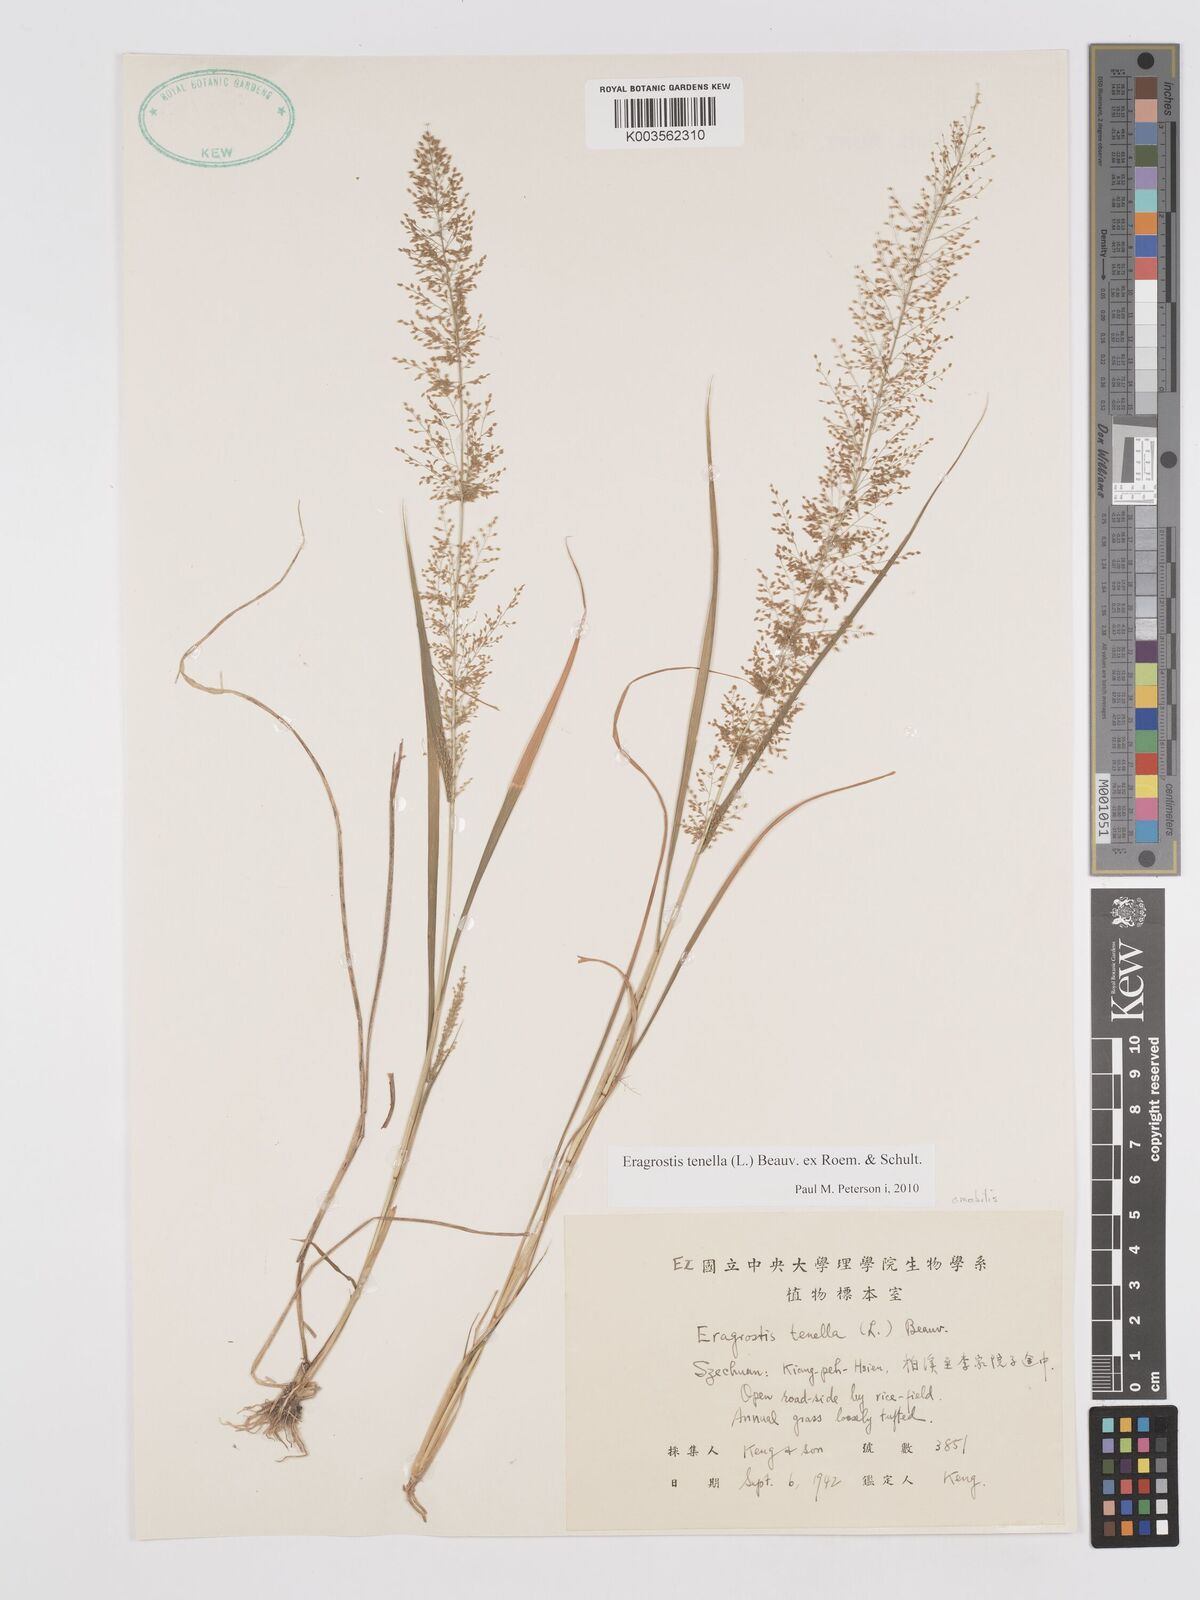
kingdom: Plantae
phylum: Tracheophyta
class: Liliopsida
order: Poales
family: Poaceae
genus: Eragrostis
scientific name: Eragrostis tenella
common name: Japanese lovegrass
